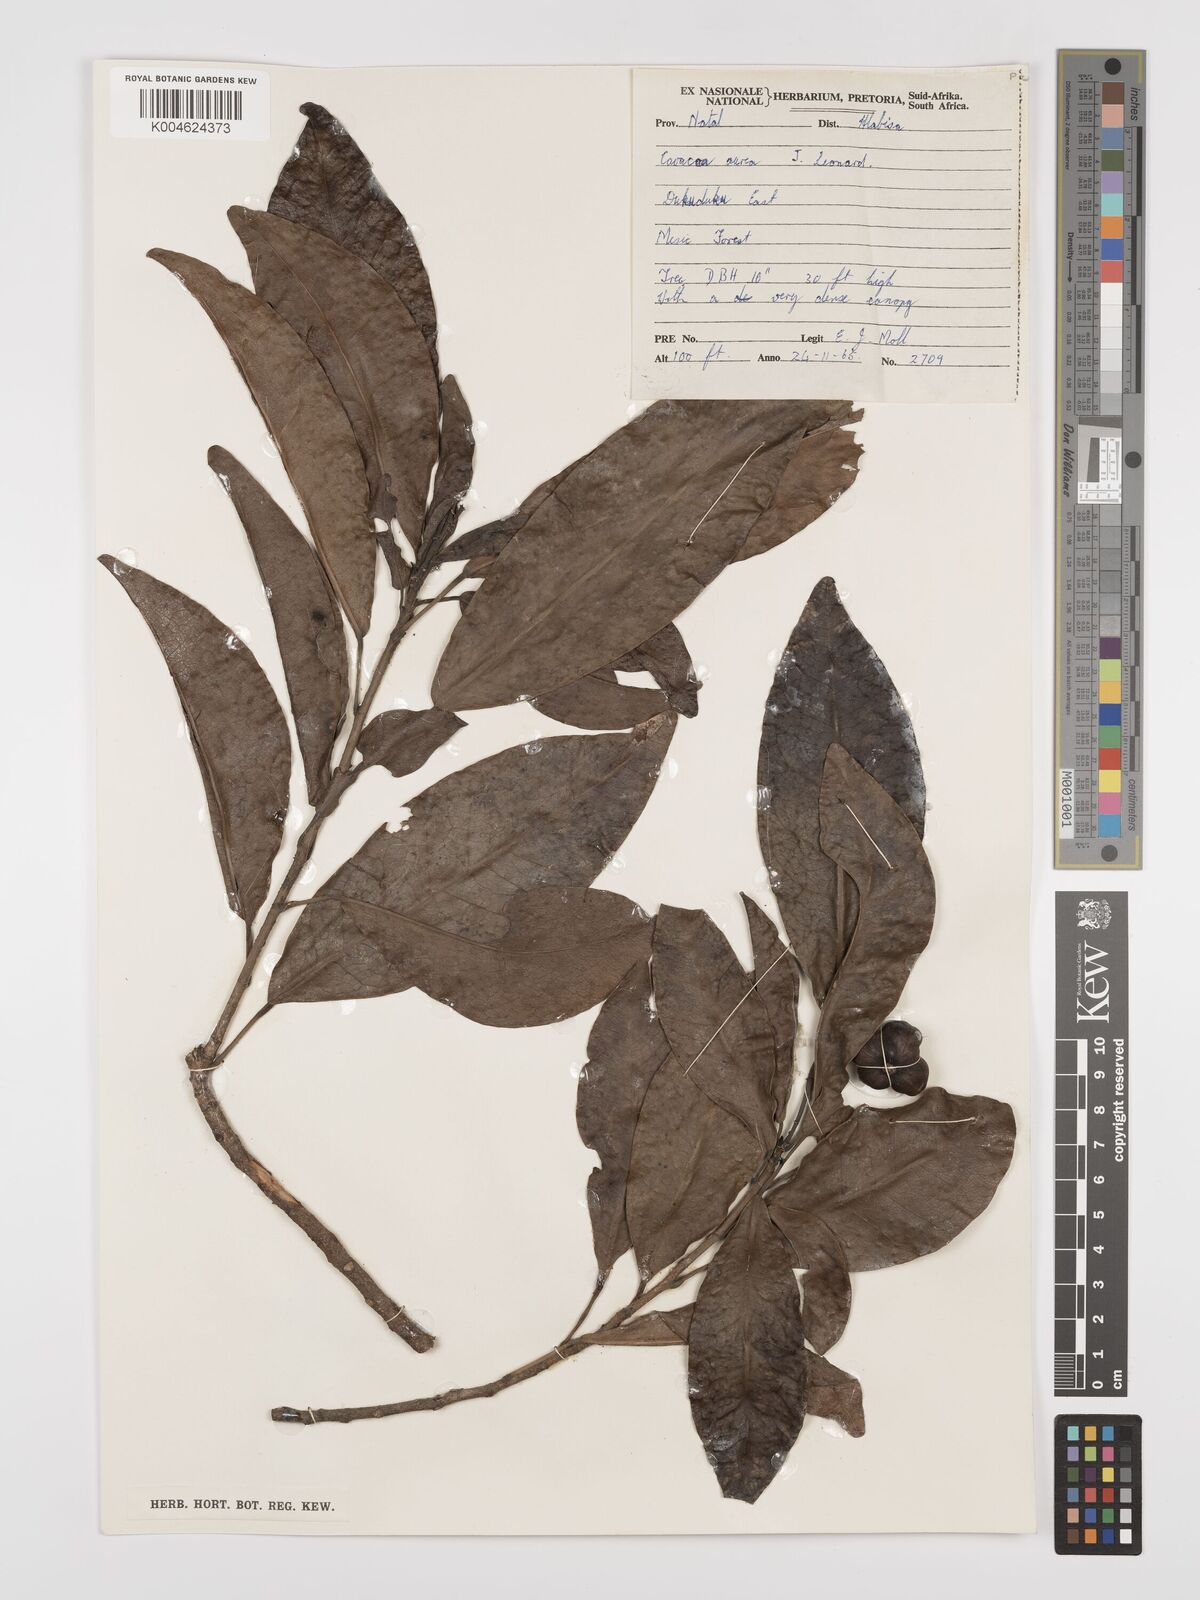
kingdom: Plantae
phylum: Tracheophyta
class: Magnoliopsida
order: Malpighiales
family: Euphorbiaceae
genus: Cavacoa
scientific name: Cavacoa aurea
